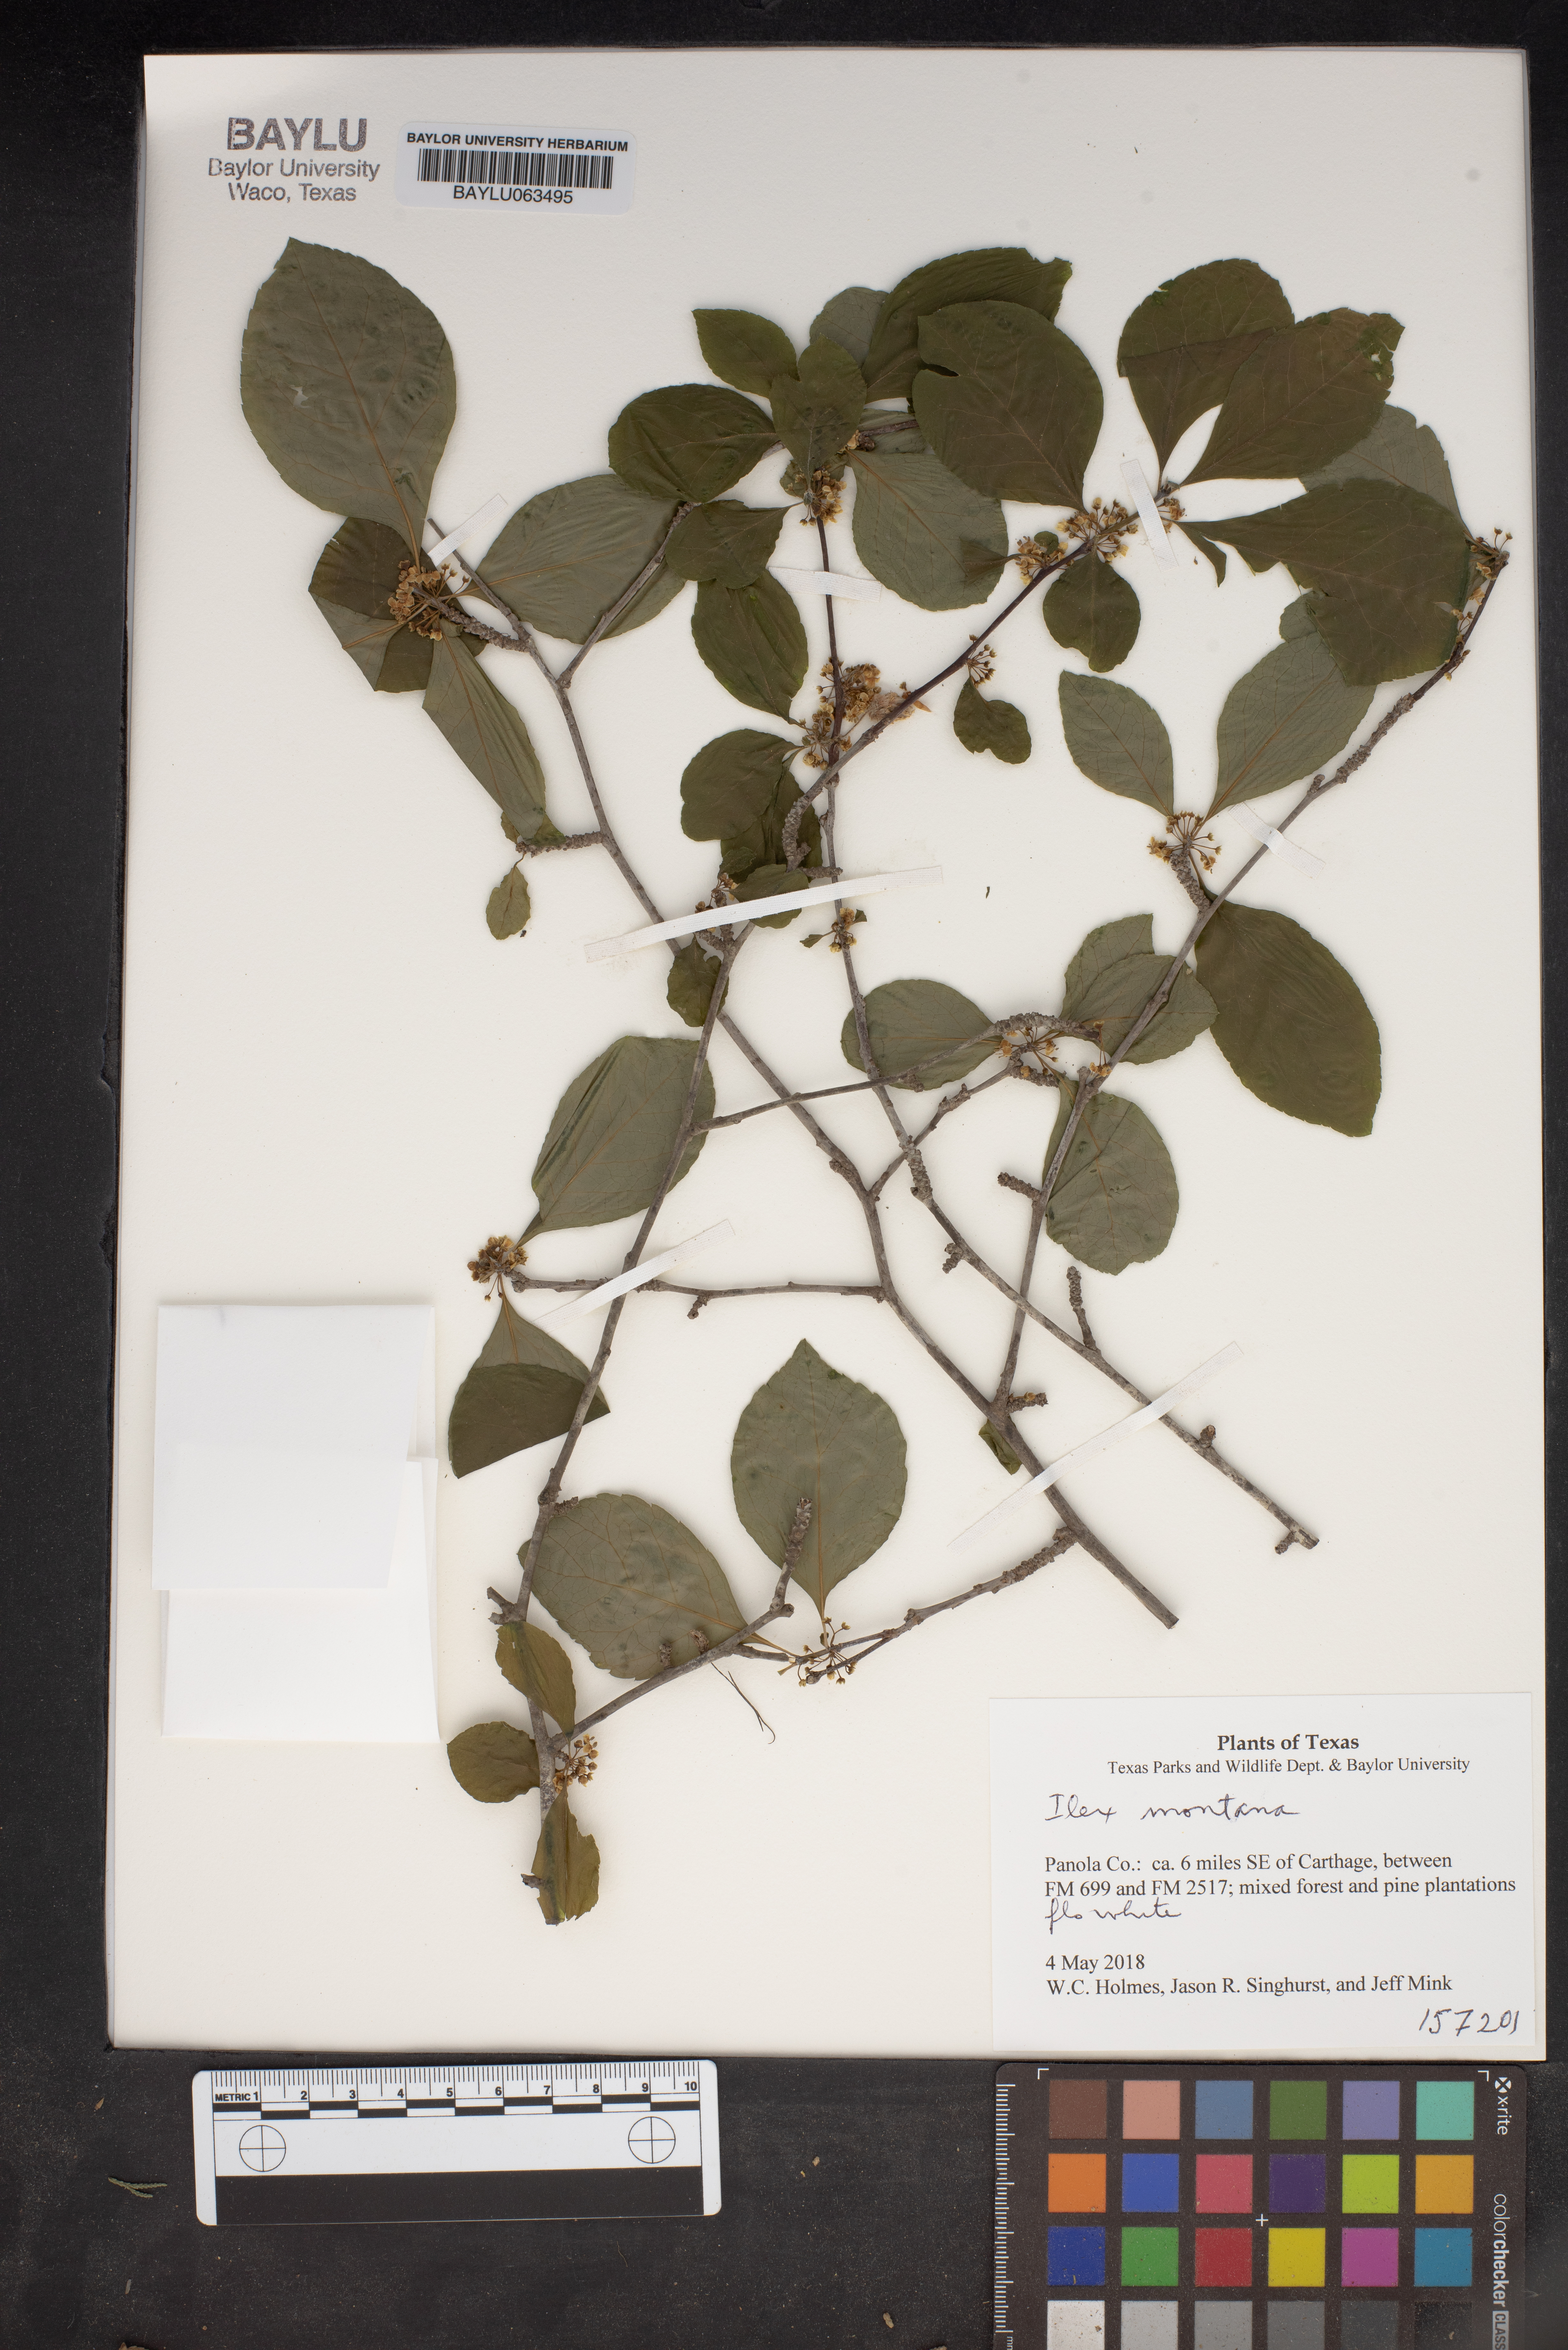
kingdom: Plantae
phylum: Tracheophyta
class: Magnoliopsida
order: Aquifoliales
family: Aquifoliaceae
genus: Ilex
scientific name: Ilex montana
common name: Mountain winterberry
